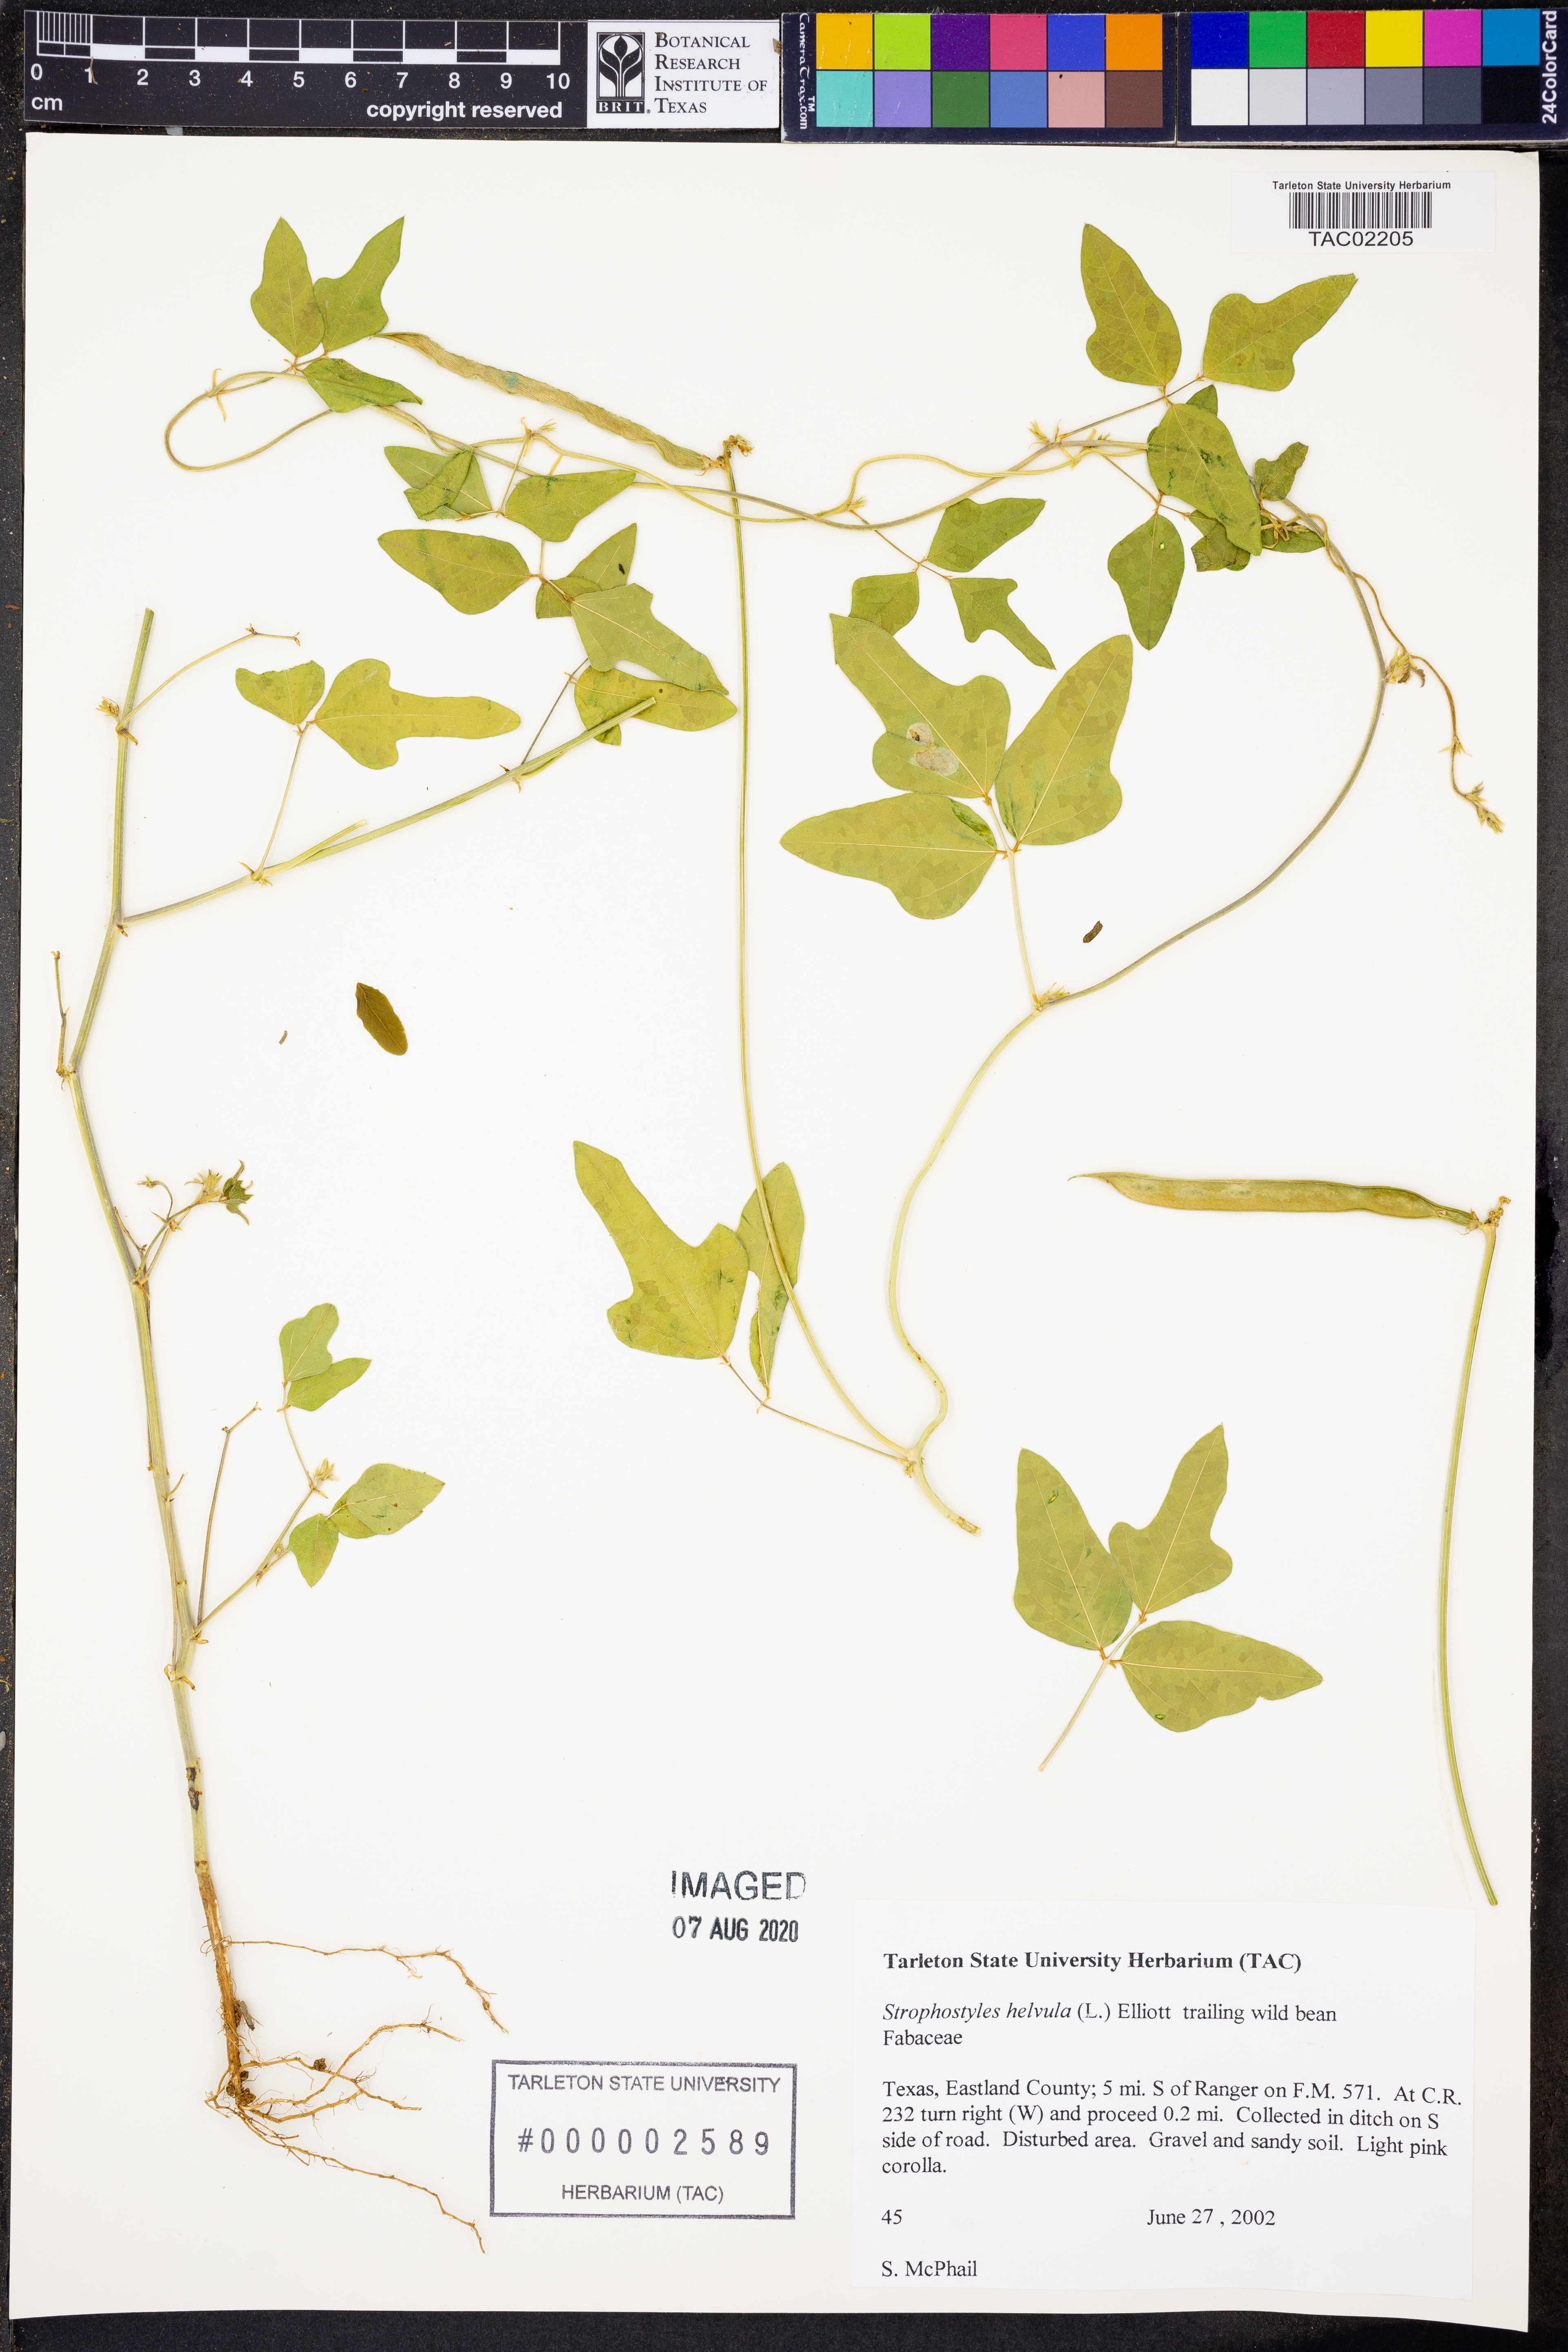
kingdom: Plantae
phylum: Tracheophyta
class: Magnoliopsida
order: Fabales
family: Fabaceae
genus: Strophostyles
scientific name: Strophostyles helvola
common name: Trailing wild bean
